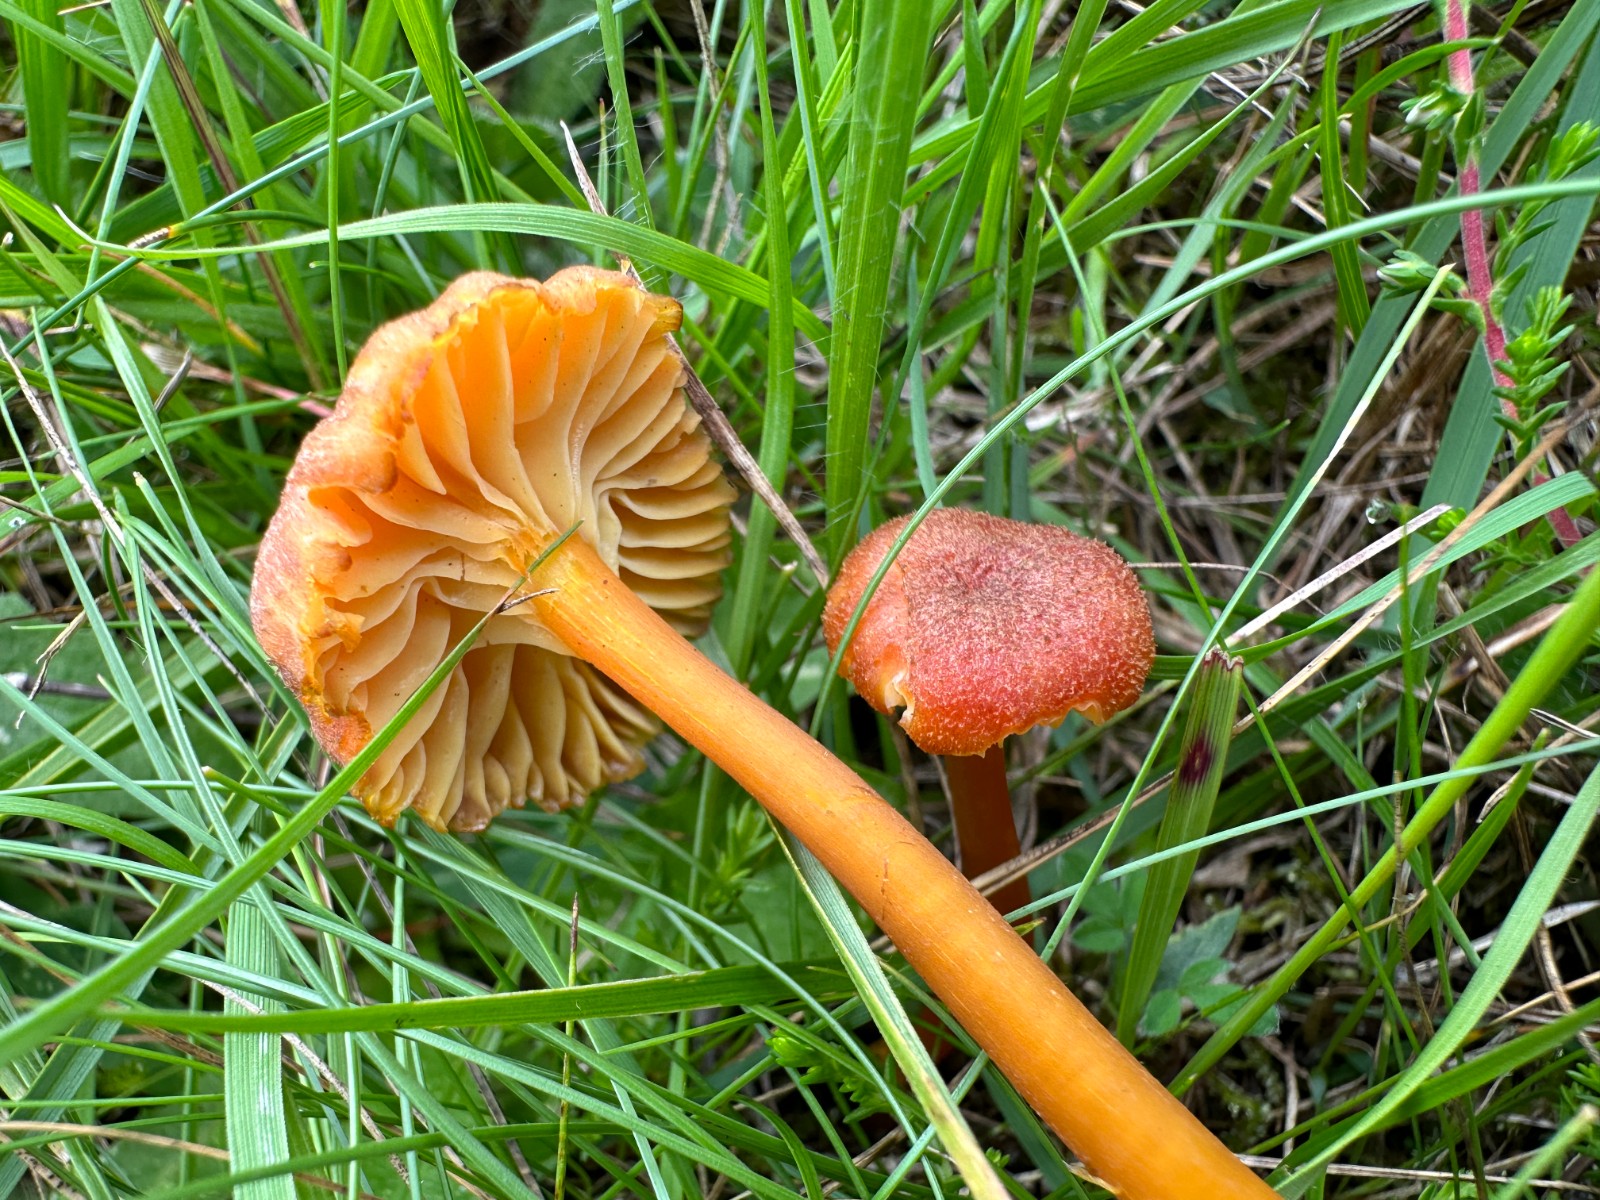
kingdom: Fungi
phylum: Basidiomycota
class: Agaricomycetes
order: Agaricales
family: Hygrophoraceae
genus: Hygrocybe
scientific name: Hygrocybe turunda
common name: sortskællet vokshat
